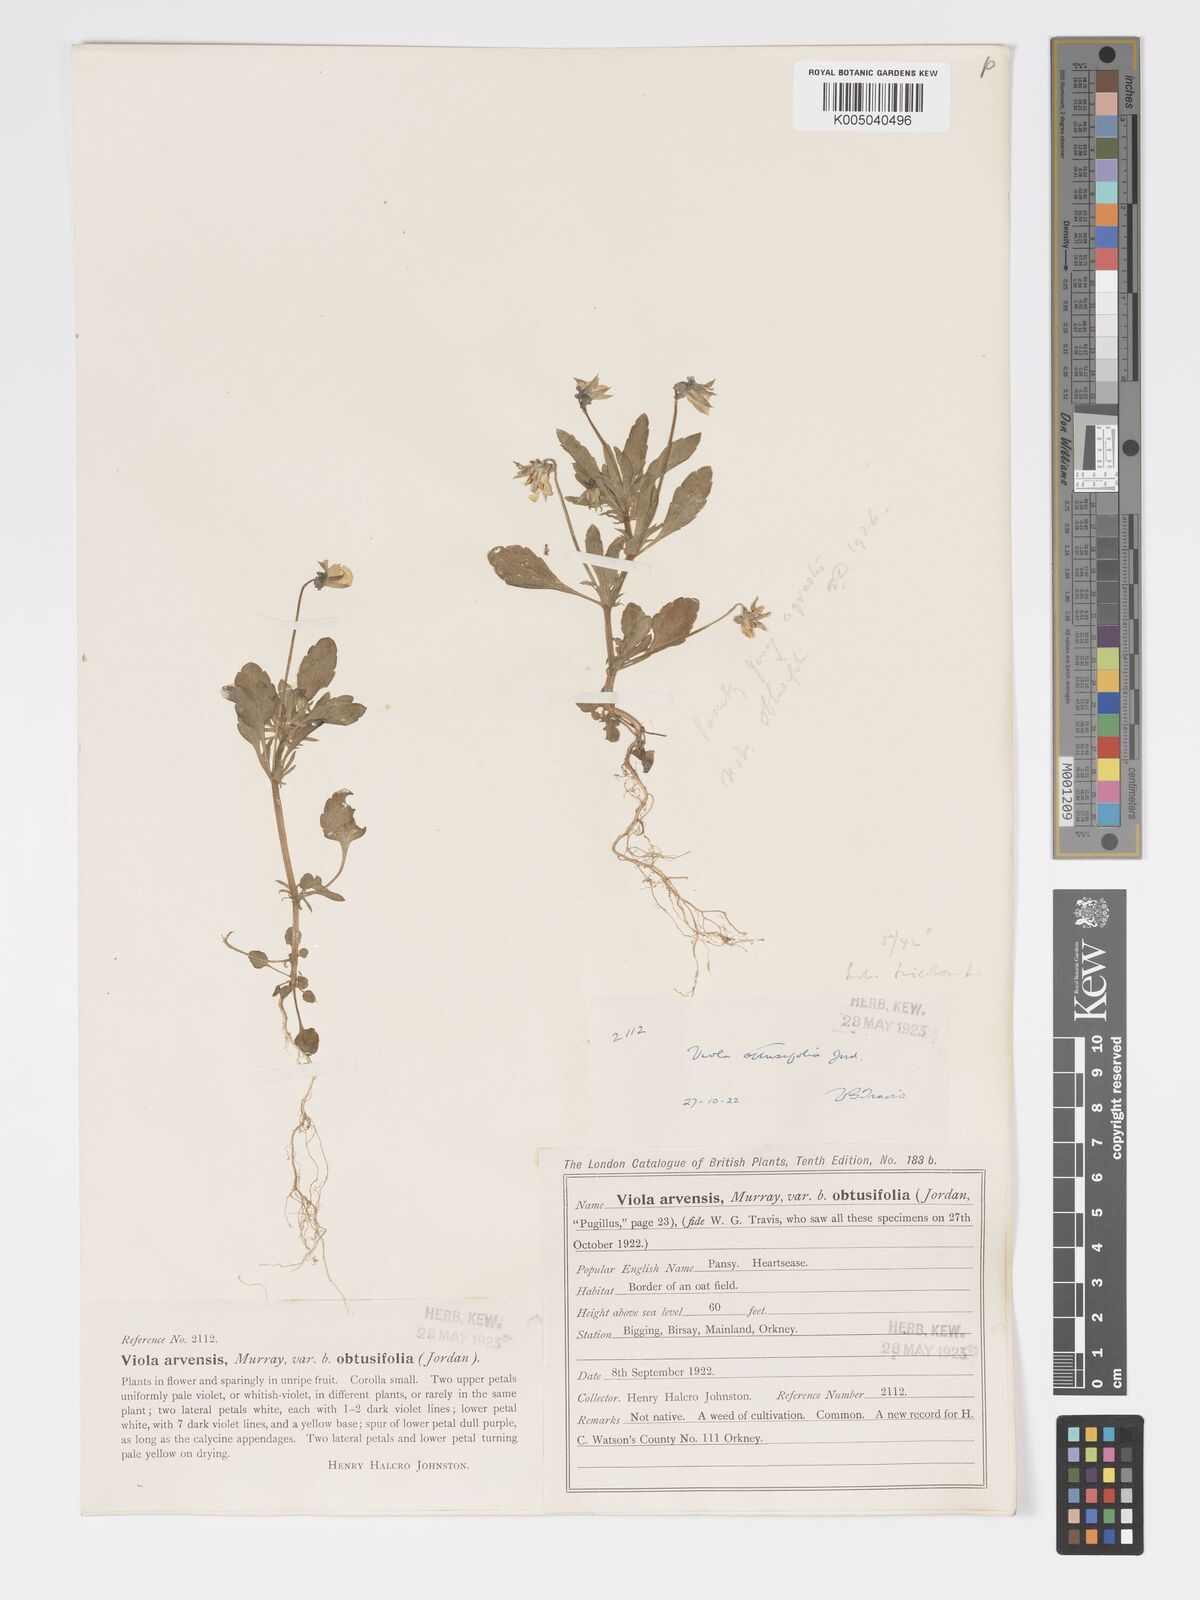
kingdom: Plantae
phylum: Tracheophyta
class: Magnoliopsida
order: Malpighiales
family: Violaceae
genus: Viola
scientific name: Viola arvensis
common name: Field pansy
